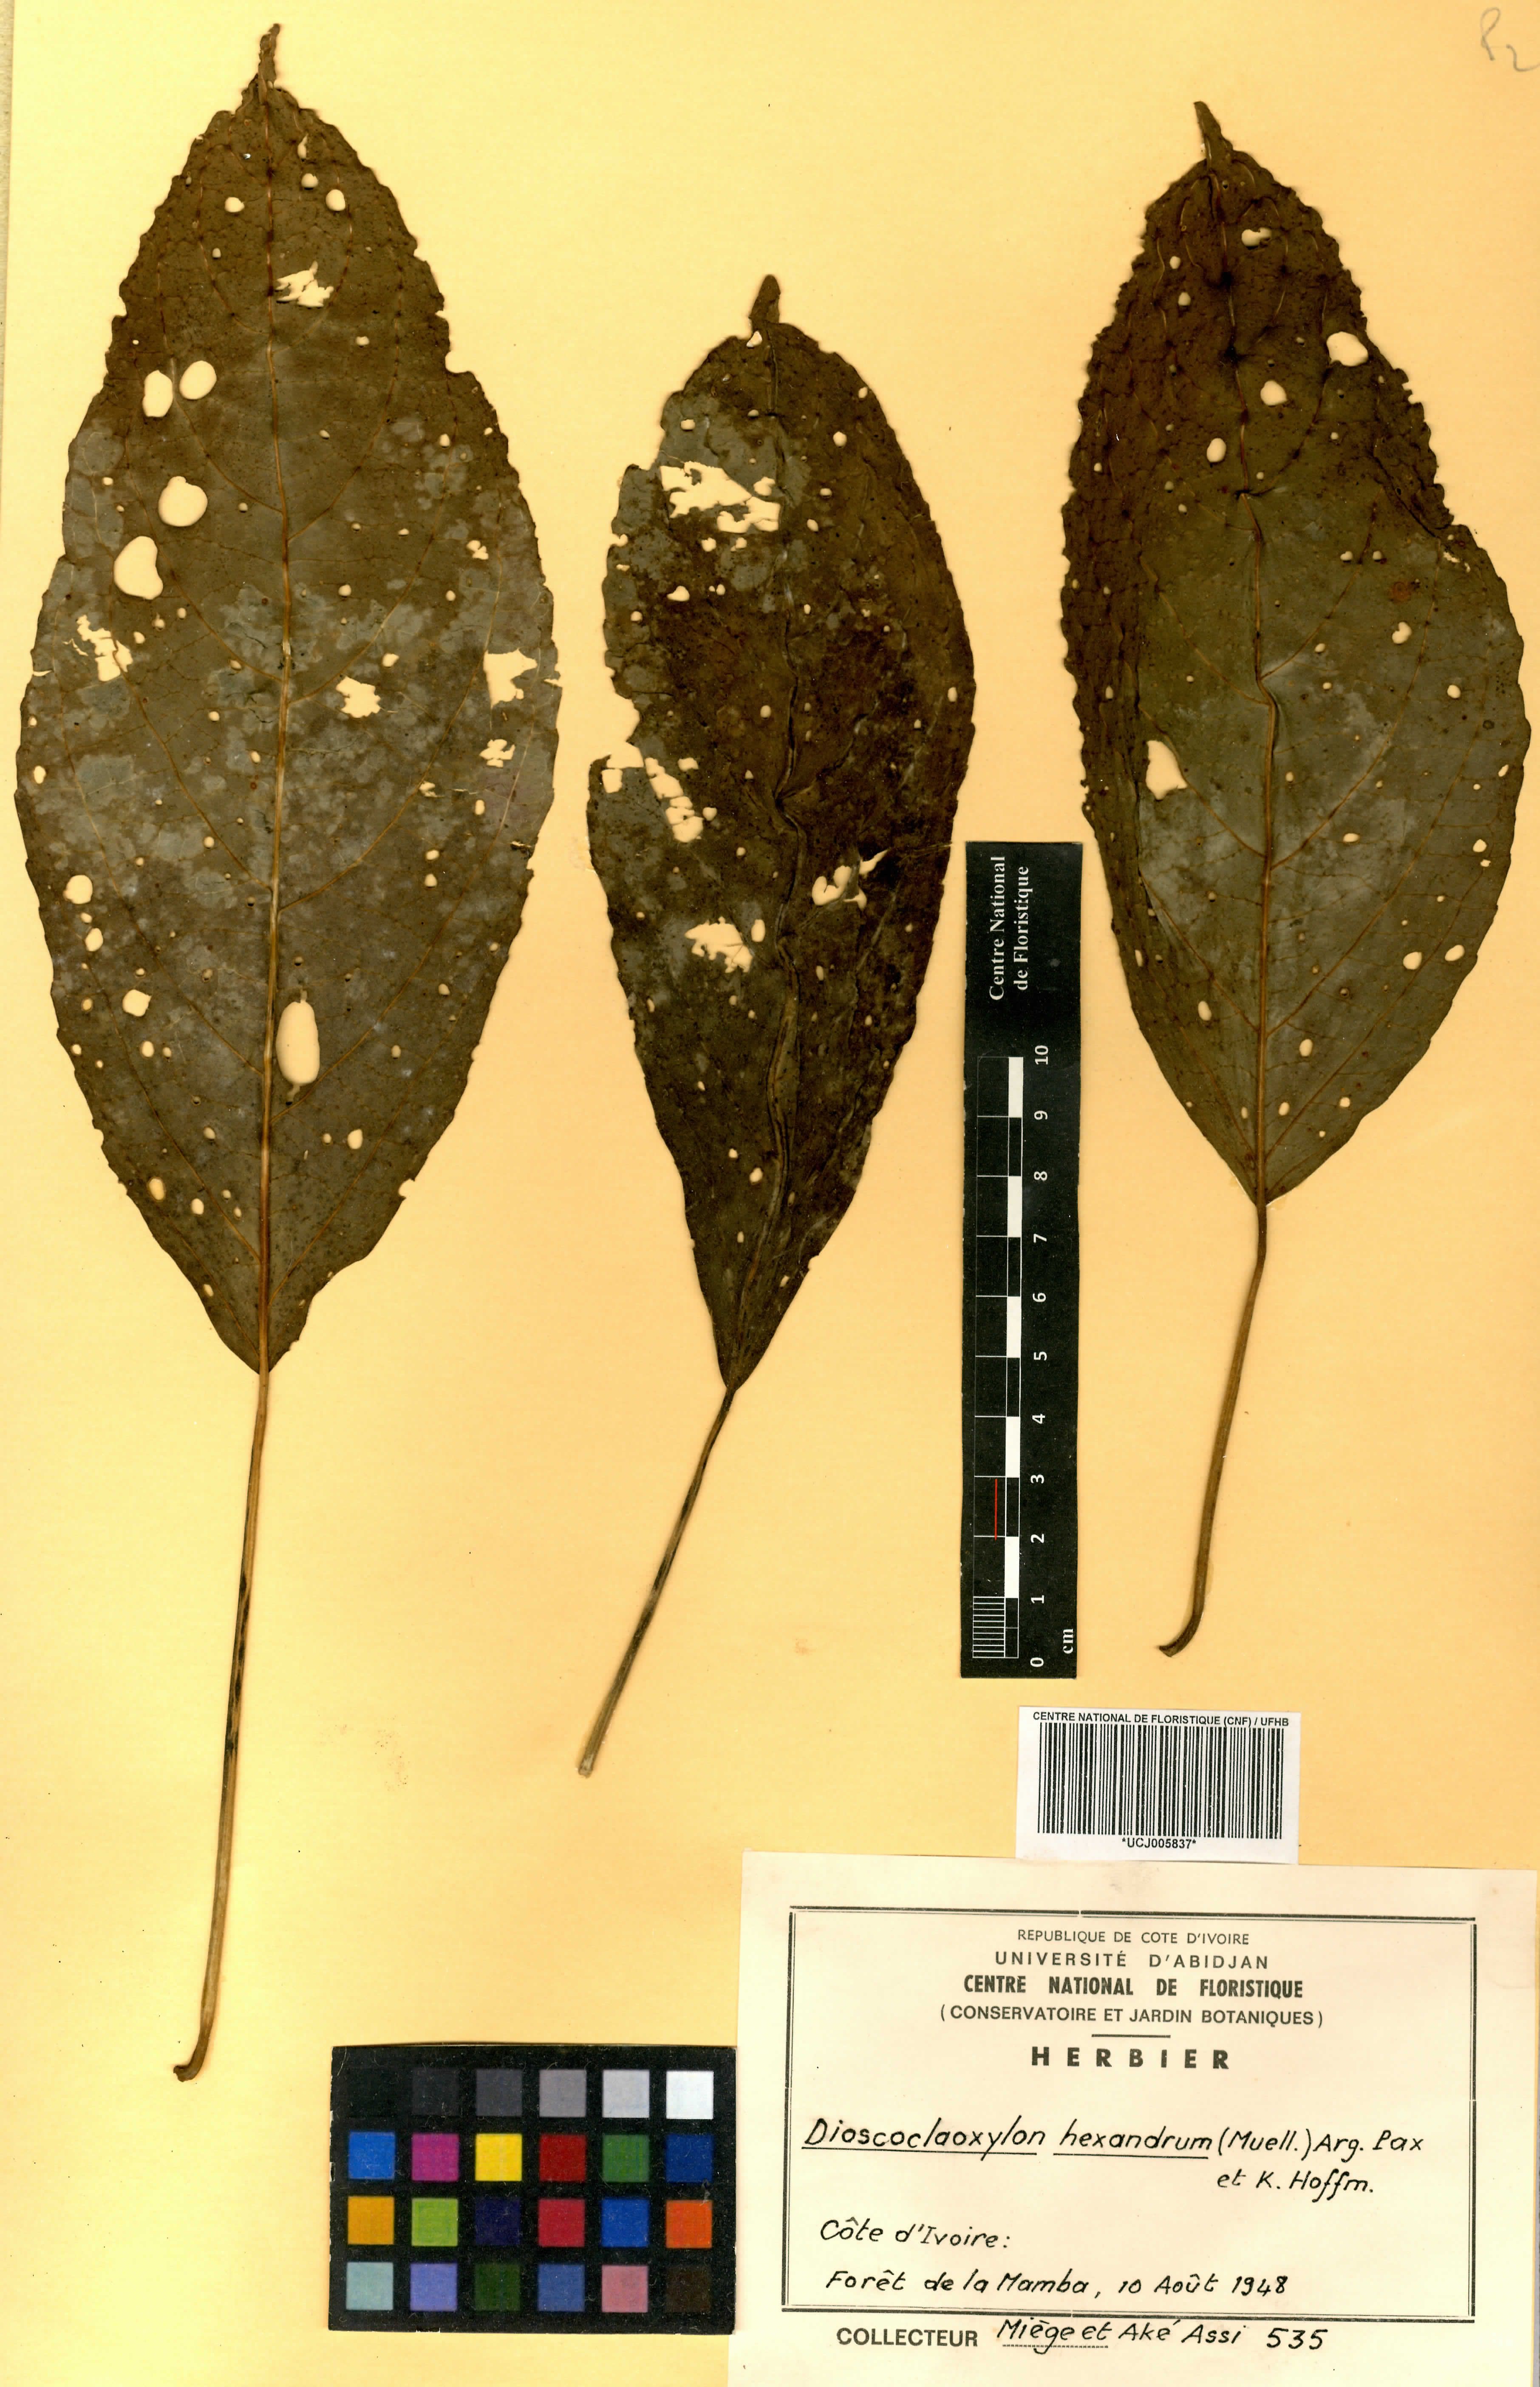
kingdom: Plantae
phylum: Tracheophyta
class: Magnoliopsida
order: Malpighiales
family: Euphorbiaceae
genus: Discoclaoxylon
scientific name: Discoclaoxylon hexandrum
